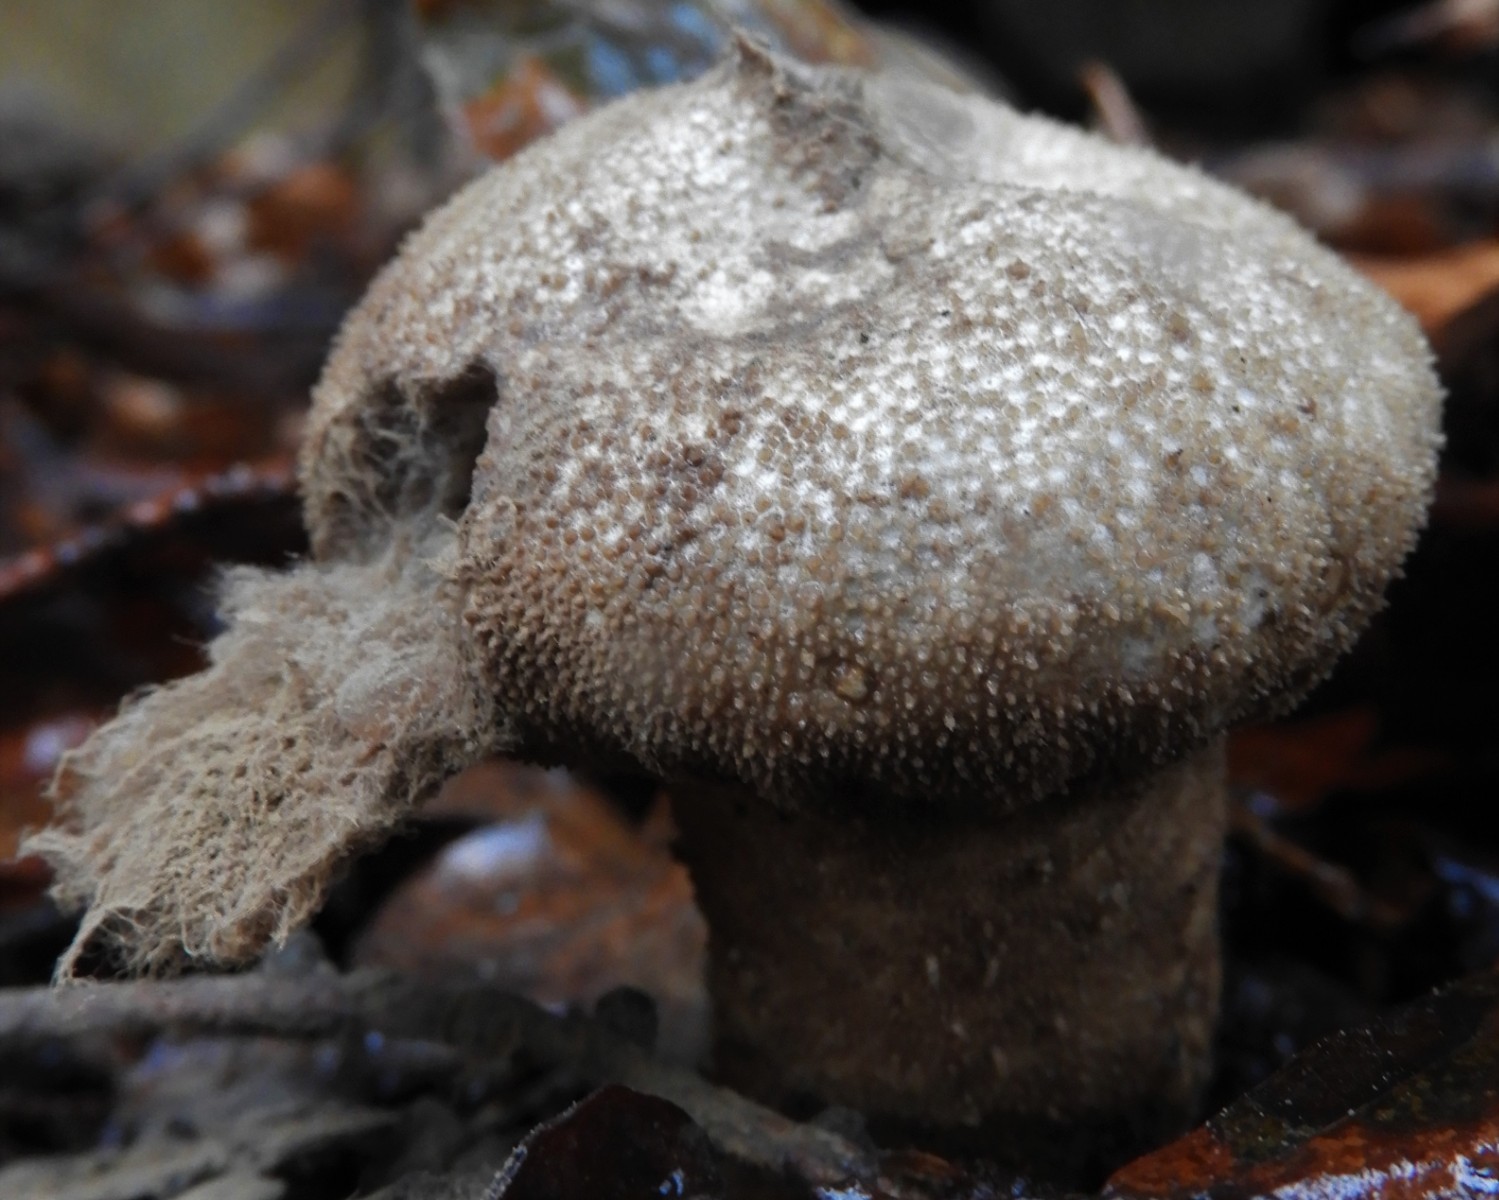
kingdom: Fungi
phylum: Basidiomycota
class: Agaricomycetes
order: Agaricales
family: Lycoperdaceae
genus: Lycoperdon
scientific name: Lycoperdon perlatum
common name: krystal-støvbold
